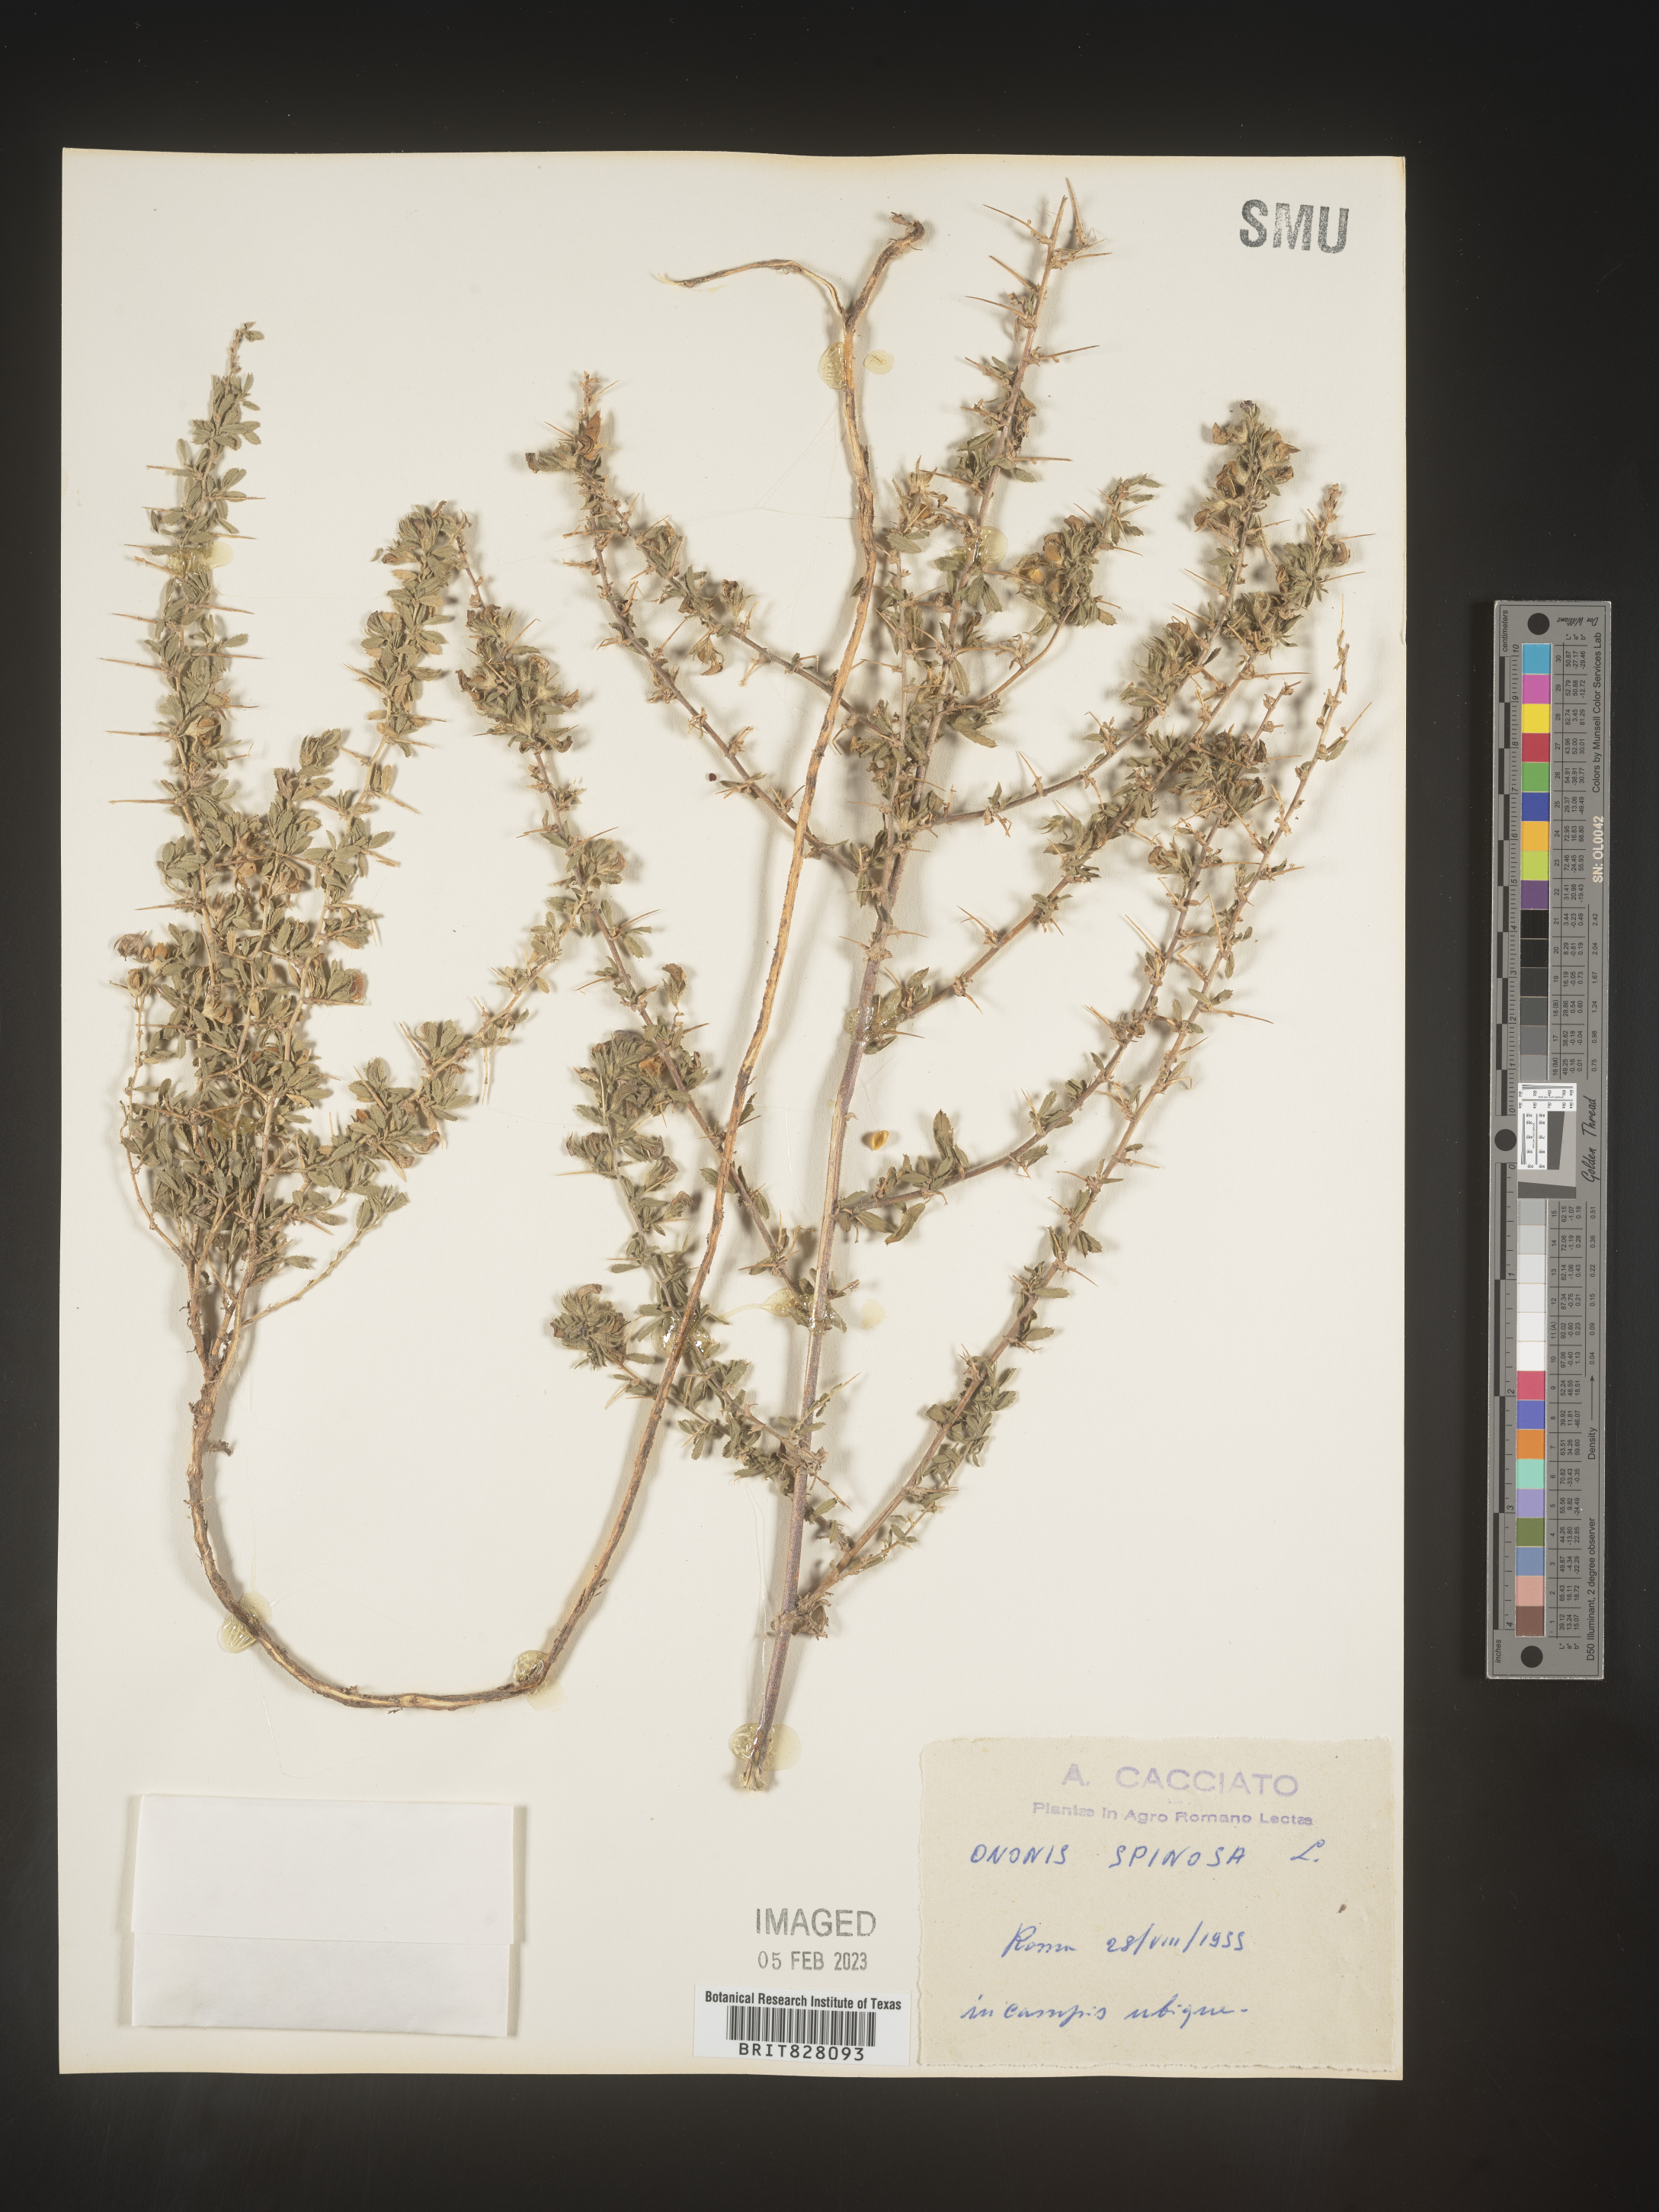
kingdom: Plantae
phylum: Tracheophyta
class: Magnoliopsida
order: Fabales
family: Fabaceae
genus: Ononis
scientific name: Ononis
